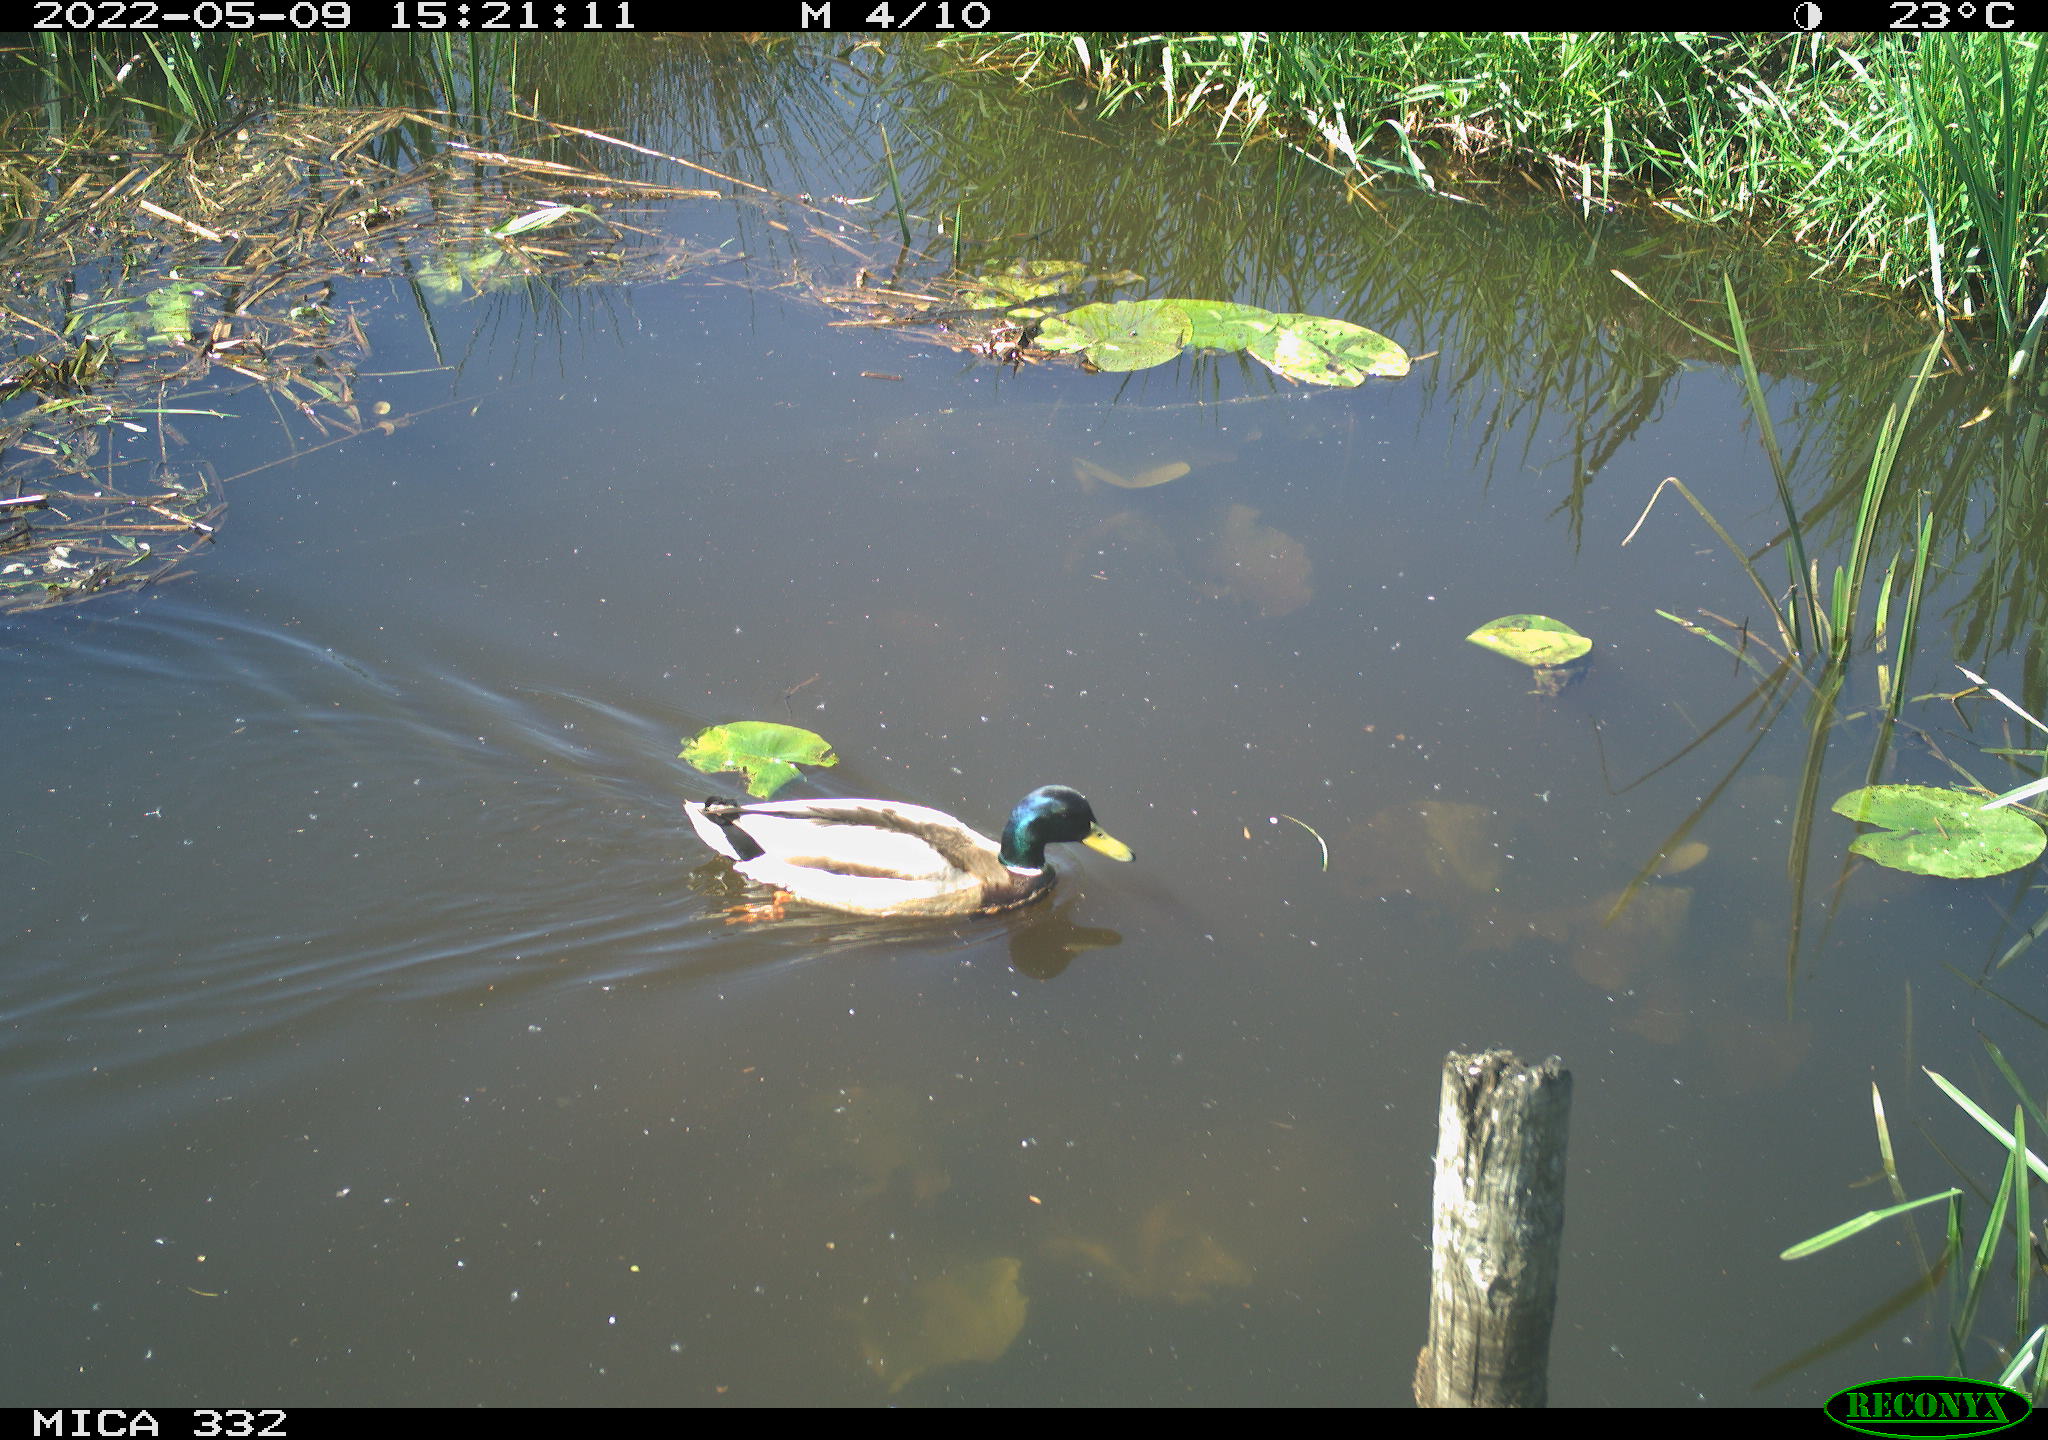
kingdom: Animalia
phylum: Chordata
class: Aves
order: Anseriformes
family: Anatidae
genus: Anas
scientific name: Anas platyrhynchos
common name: Mallard
